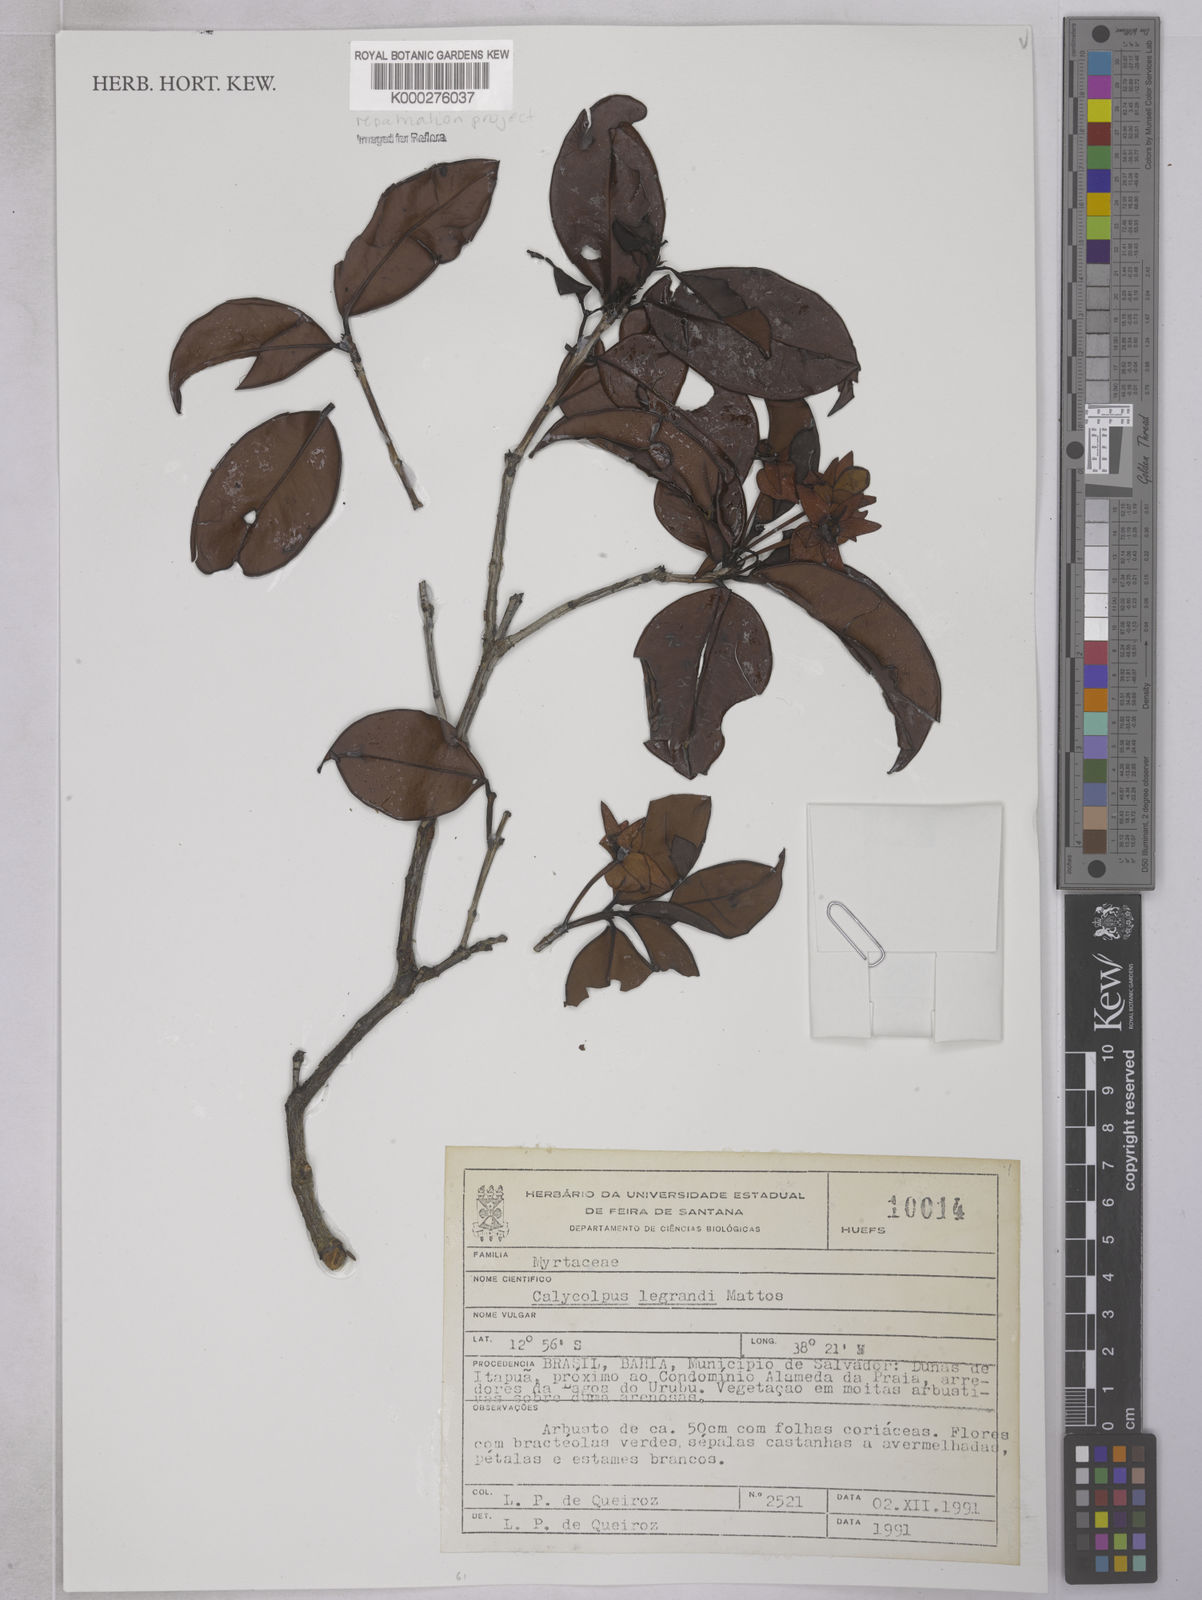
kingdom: Plantae
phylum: Tracheophyta
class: Magnoliopsida
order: Myrtales
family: Myrtaceae
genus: Calycolpus
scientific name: Calycolpus legrandii
